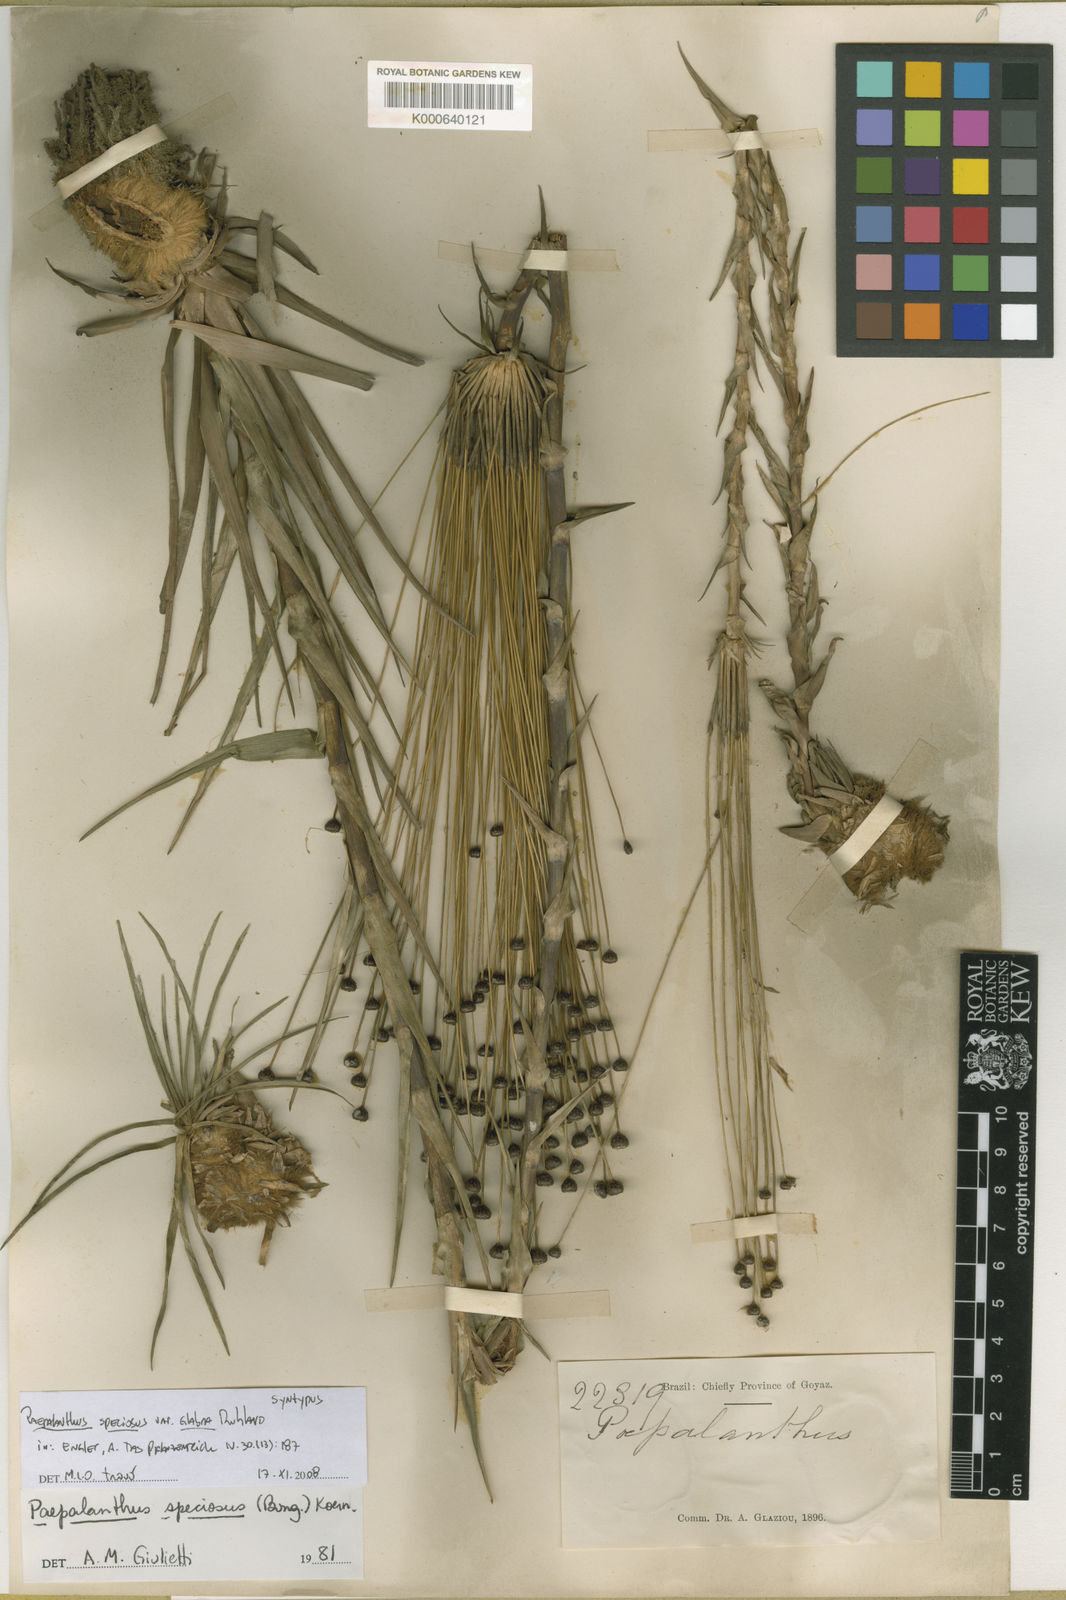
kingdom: Plantae
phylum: Tracheophyta
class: Liliopsida
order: Poales
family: Eriocaulaceae
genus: Paepalanthus
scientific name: Paepalanthus chiquitensis
